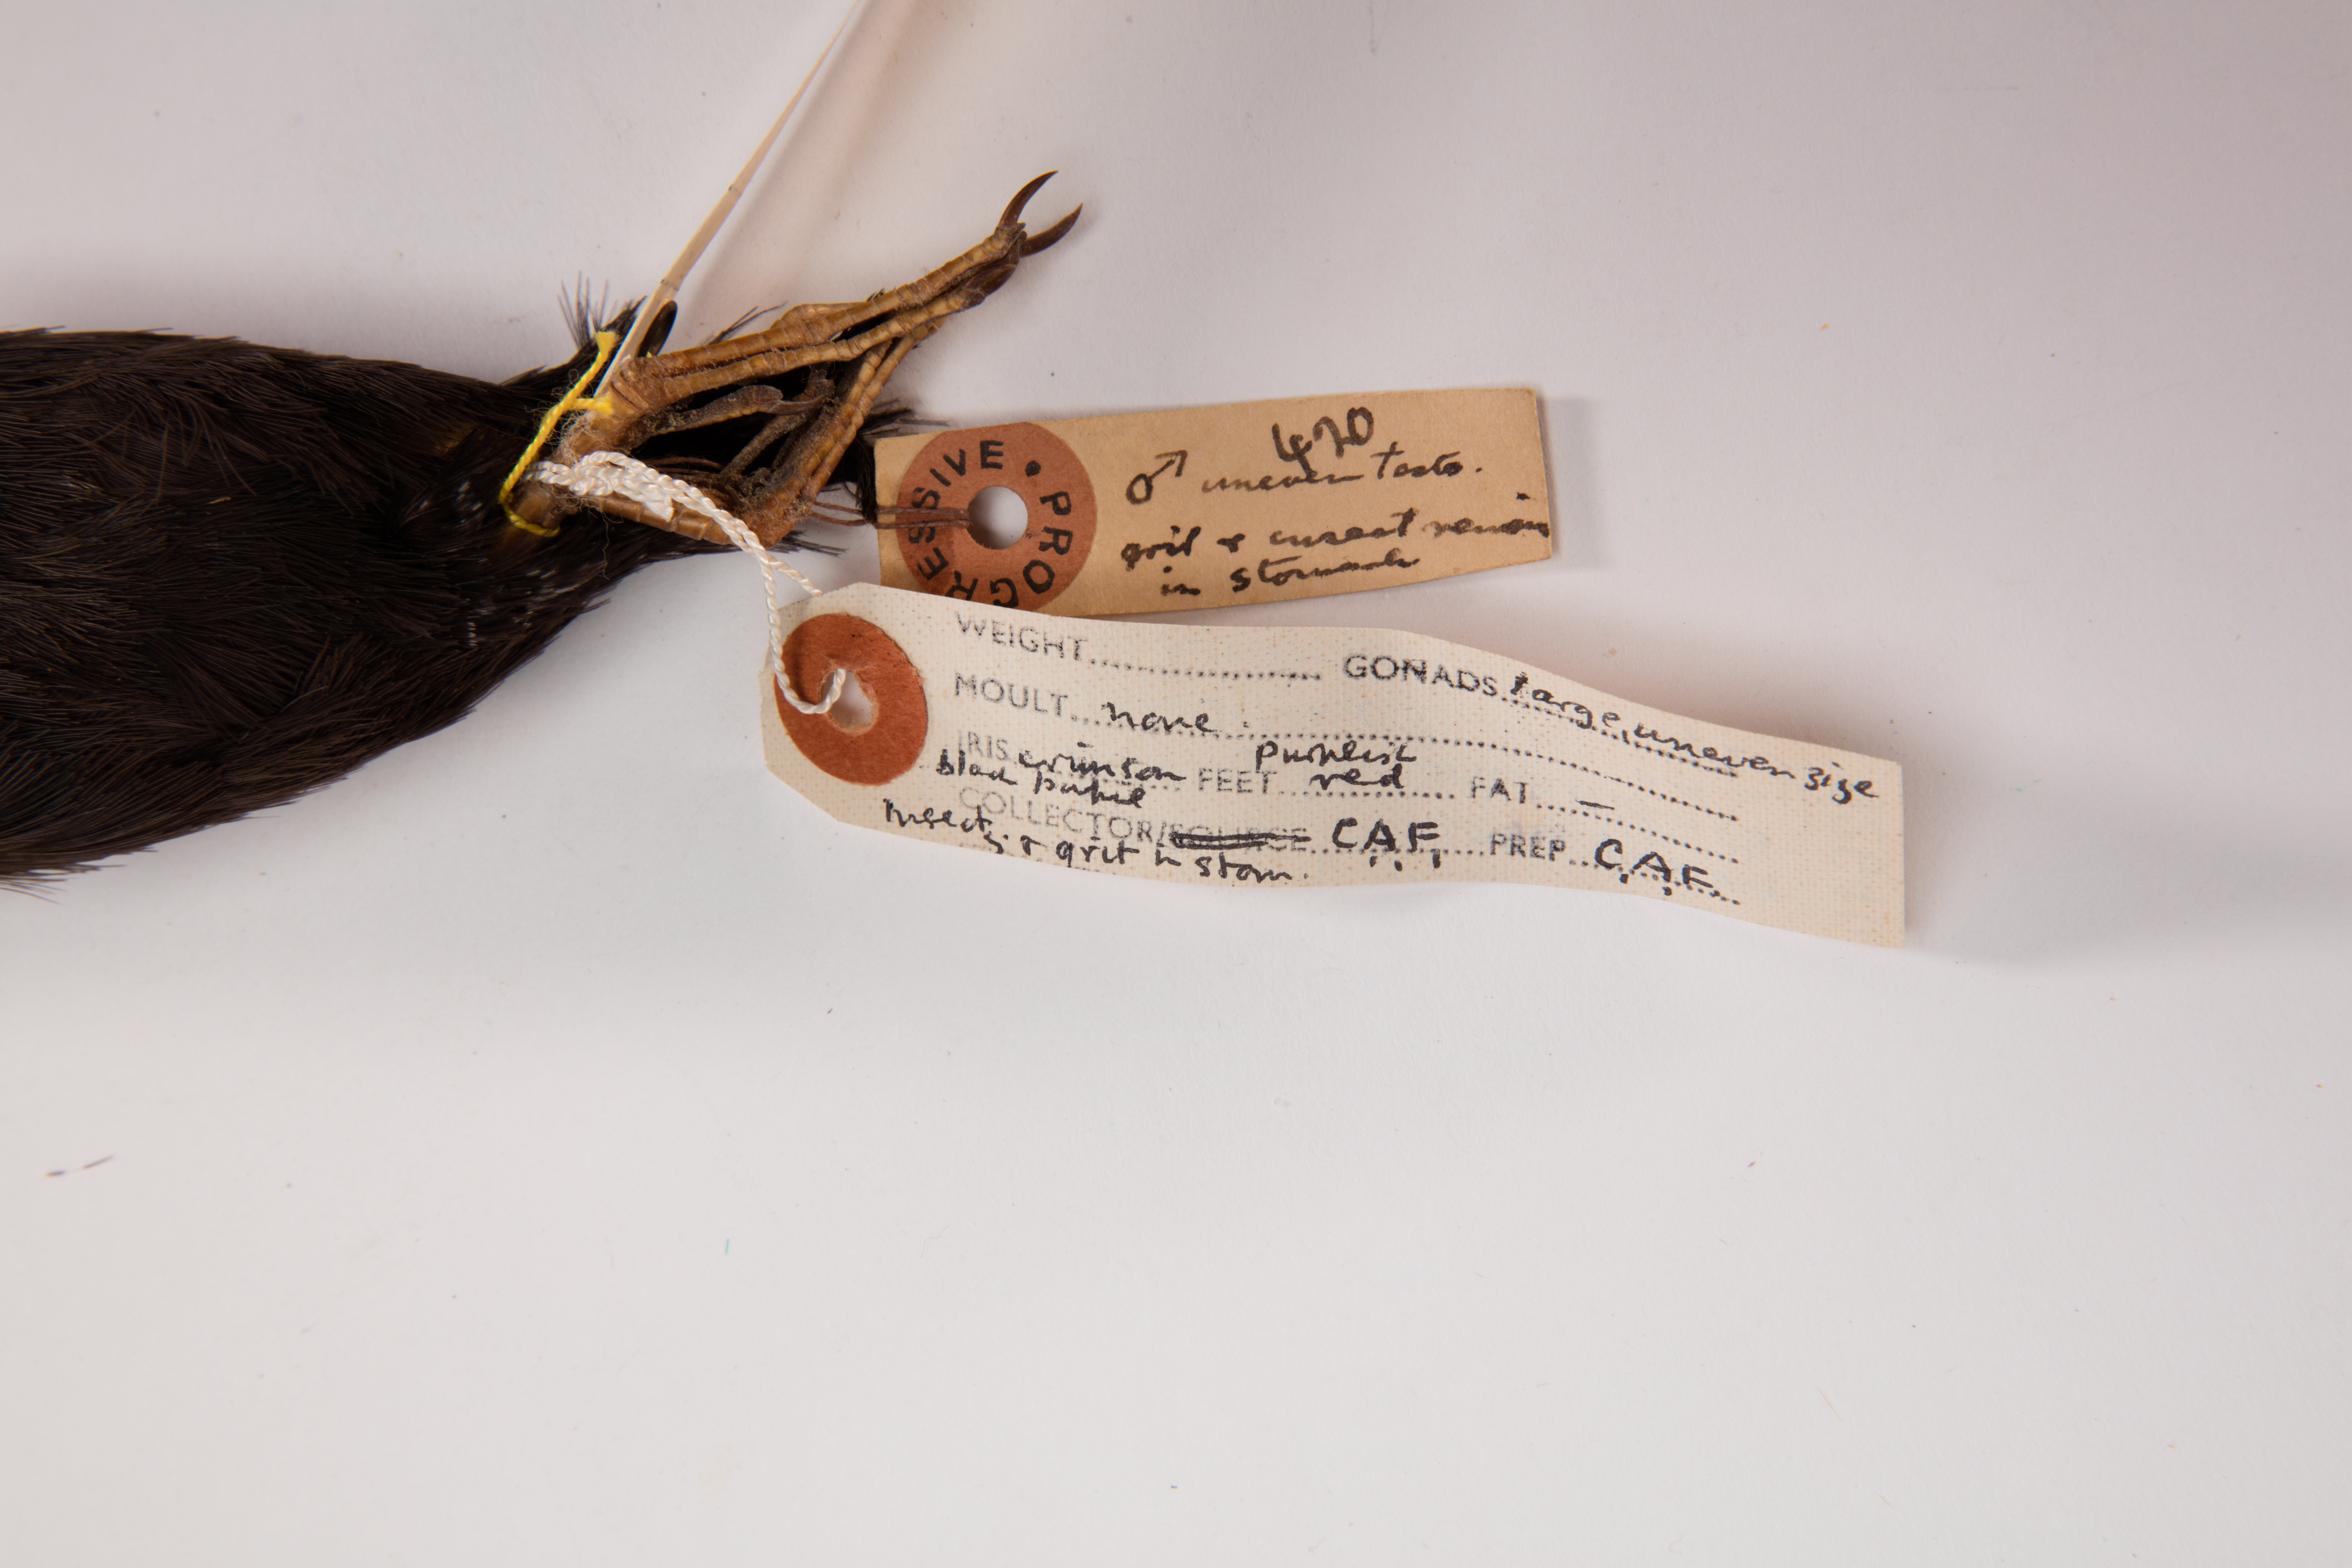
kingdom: Animalia
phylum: Chordata
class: Aves
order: Gruiformes
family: Rallidae
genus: Porzana
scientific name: Porzana tabuensis
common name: Spotless crake
